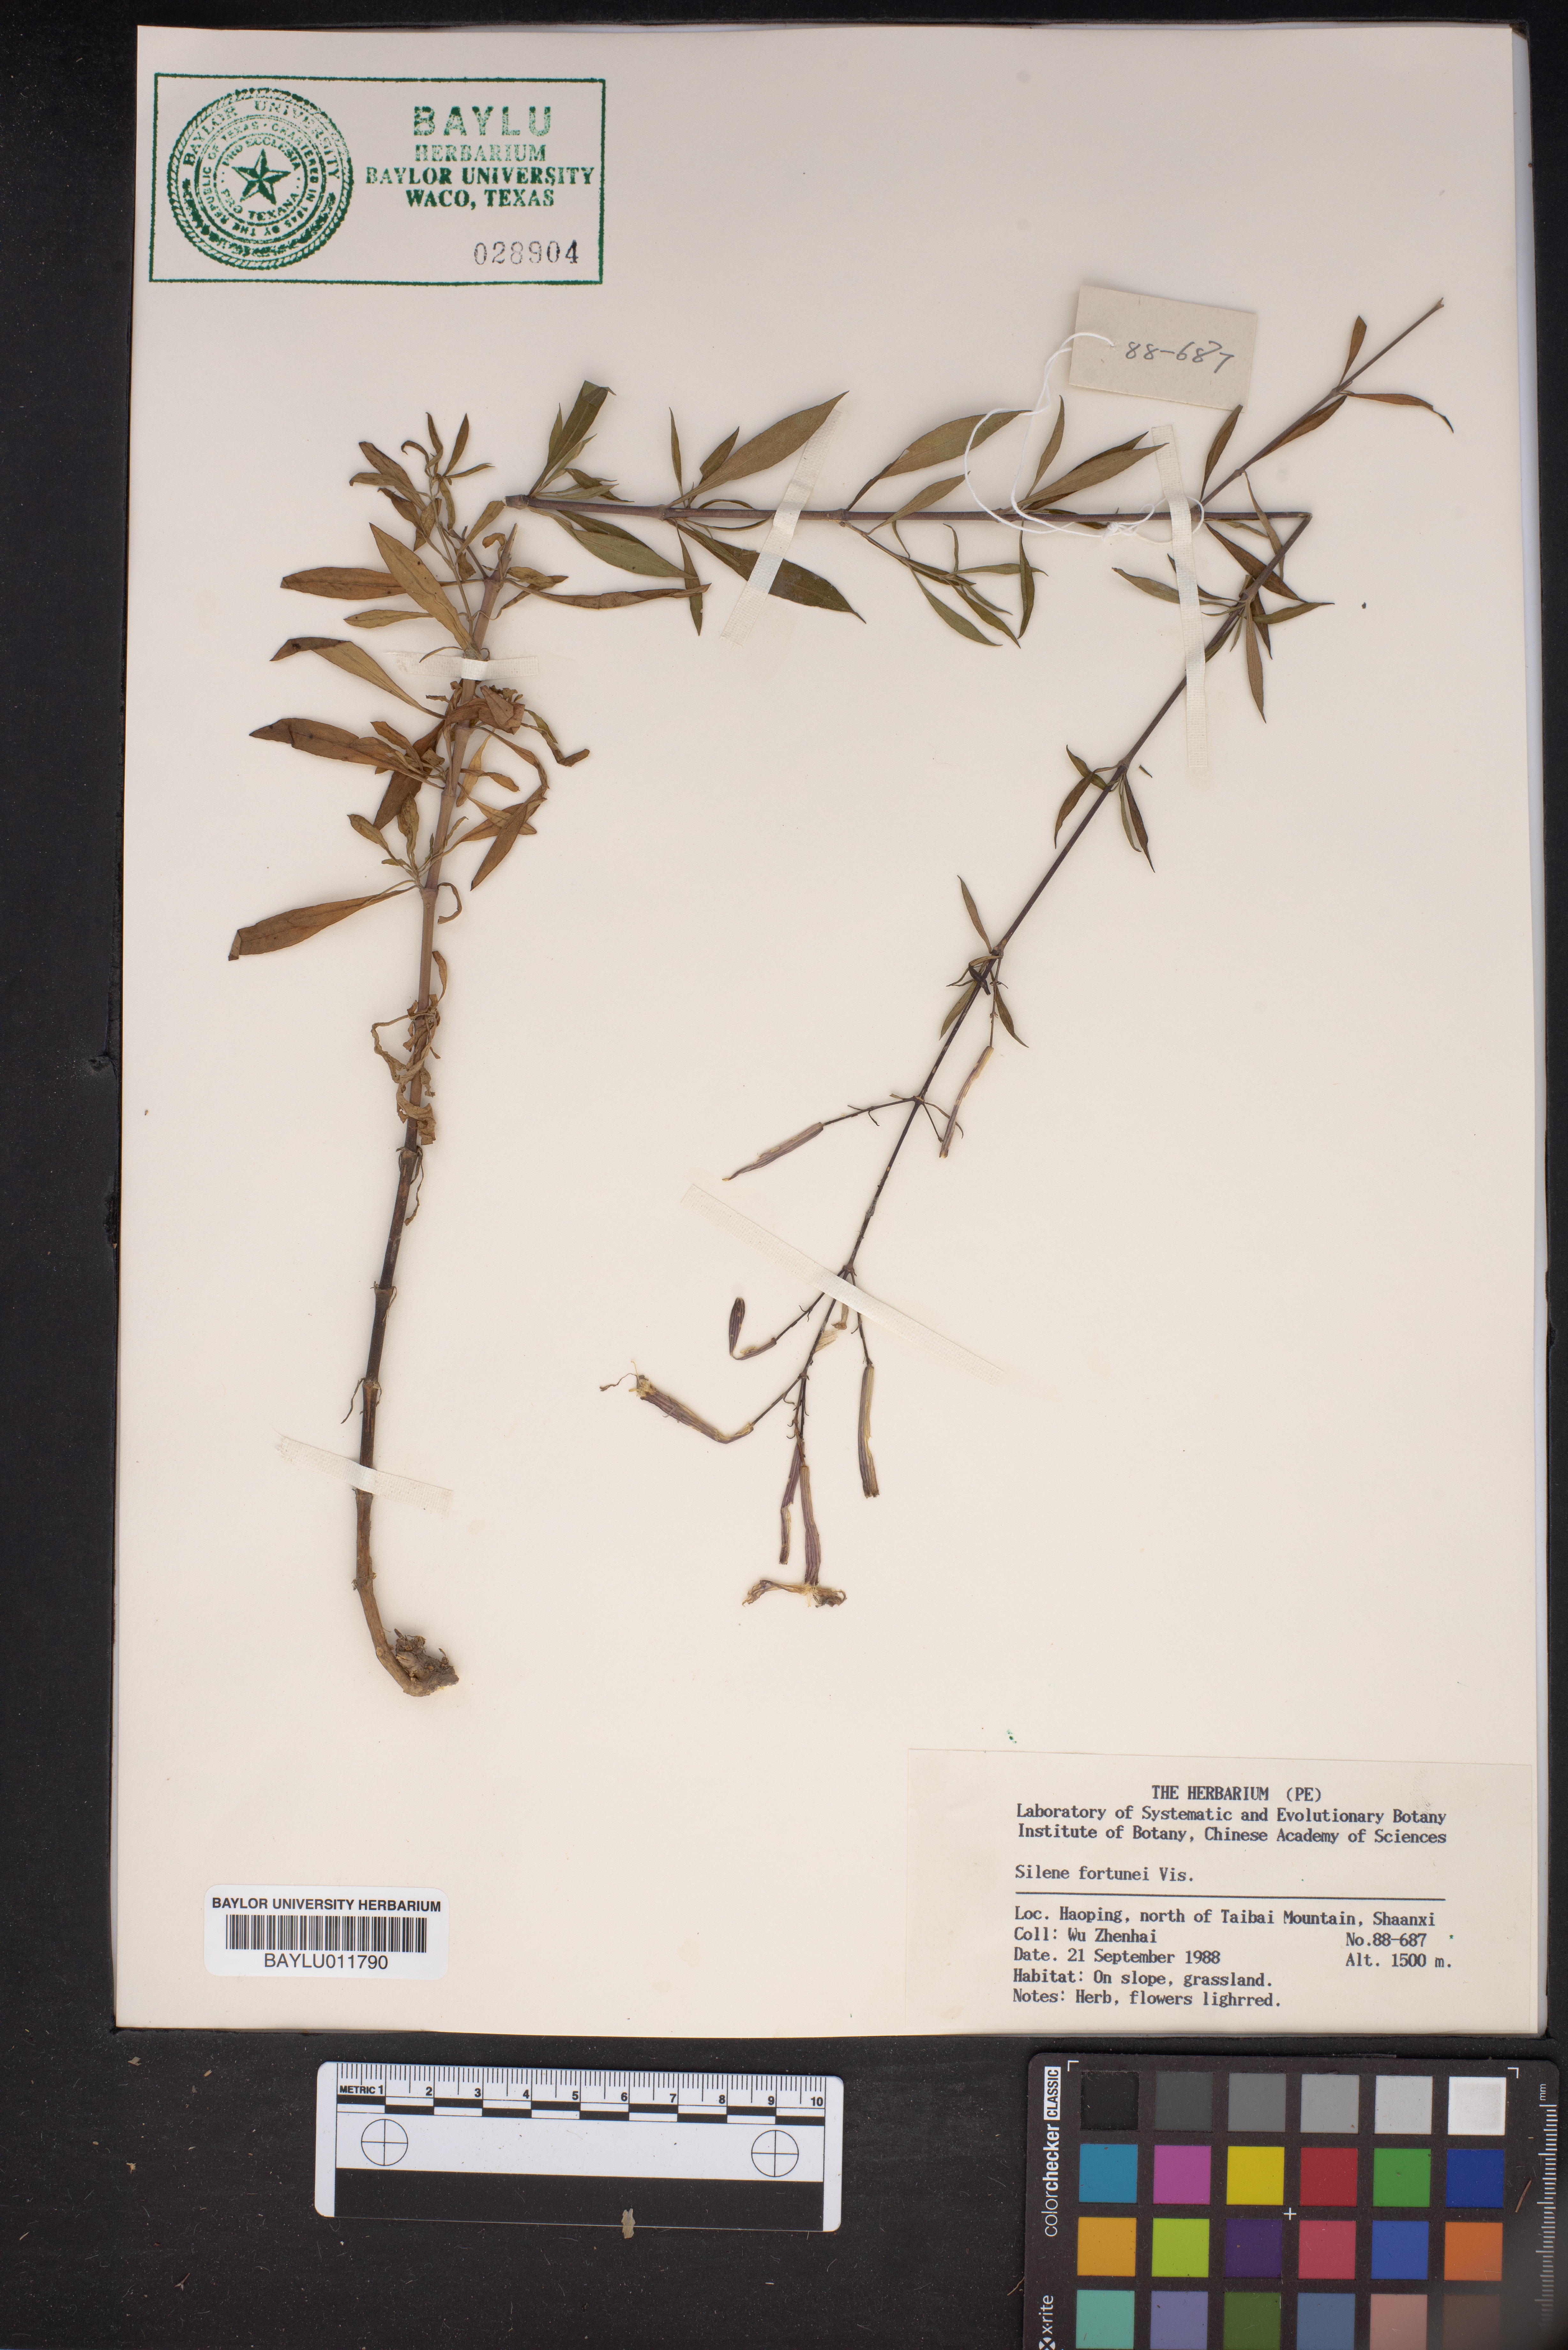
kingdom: Plantae
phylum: Tracheophyta
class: Magnoliopsida
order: Caryophyllales
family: Caryophyllaceae
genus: Silene
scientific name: Silene fortunei
